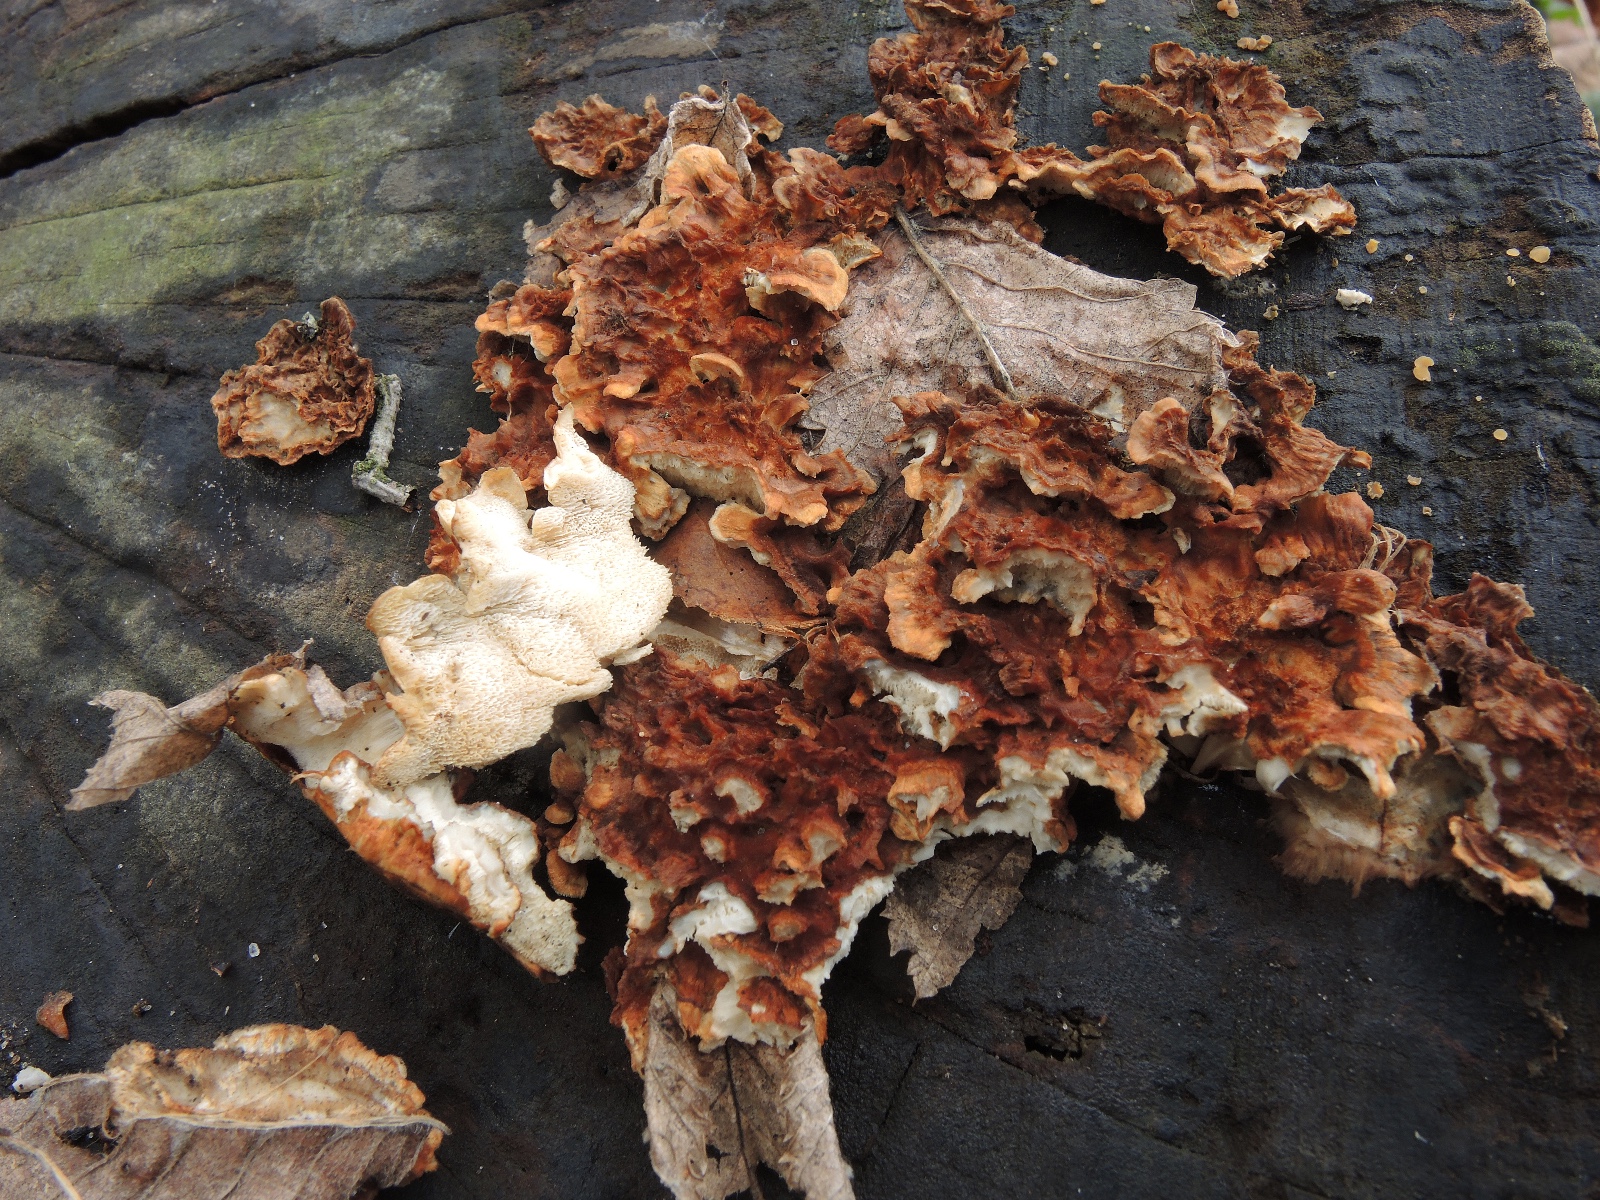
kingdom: Fungi
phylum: Basidiomycota
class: Agaricomycetes
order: Polyporales
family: Steccherinaceae
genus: Loweomyces
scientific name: Loweomyces wynneae
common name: krybende blødporesvamp
